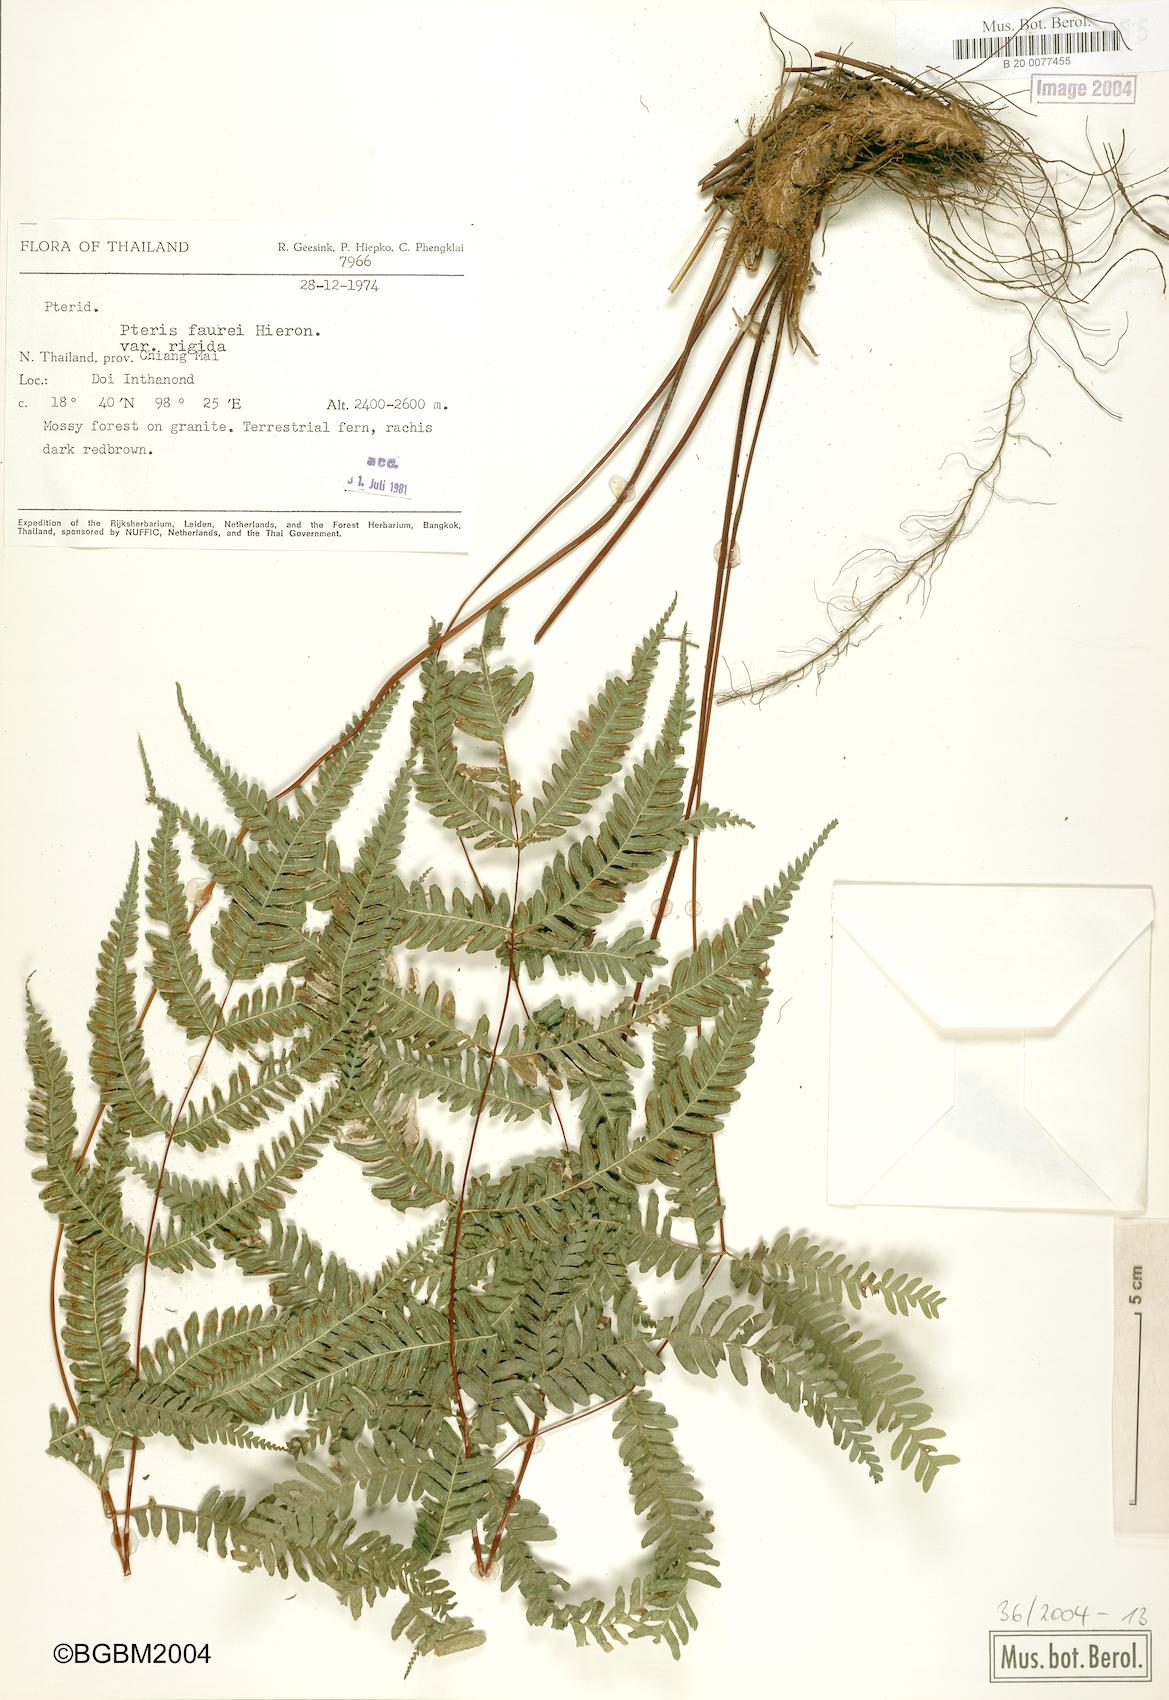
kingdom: Plantae
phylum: Tracheophyta
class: Polypodiopsida
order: Polypodiales
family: Pteridaceae
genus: Pteris
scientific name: Pteris fauriei
